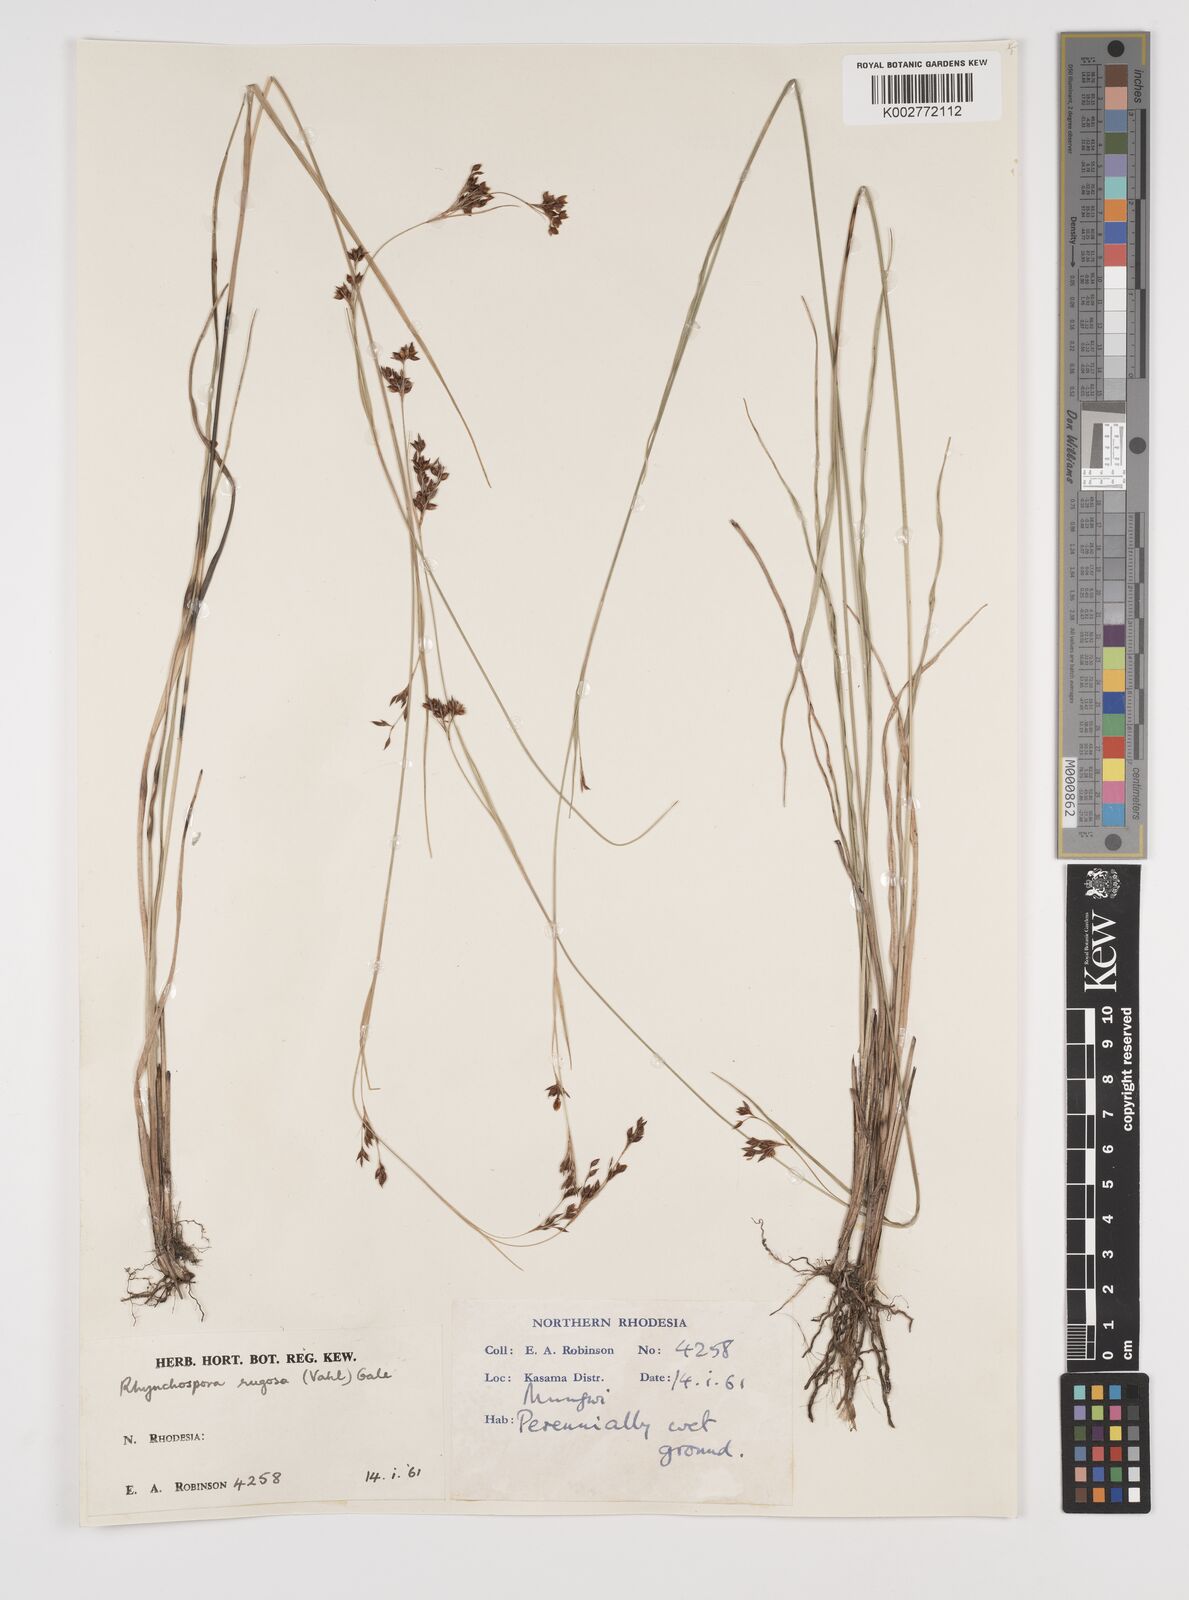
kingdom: Plantae
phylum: Tracheophyta
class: Liliopsida
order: Poales
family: Cyperaceae
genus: Rhynchospora
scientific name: Rhynchospora rugosa
